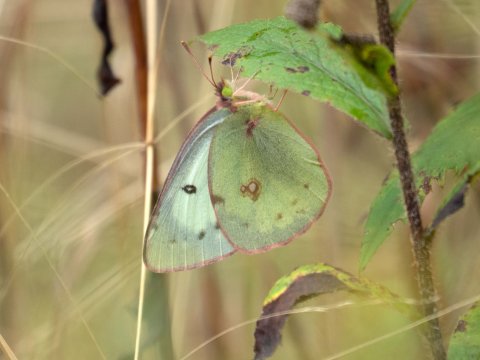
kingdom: Animalia
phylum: Arthropoda
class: Insecta
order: Lepidoptera
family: Pieridae
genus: Colias
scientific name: Colias philodice
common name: Clouded Sulphur
